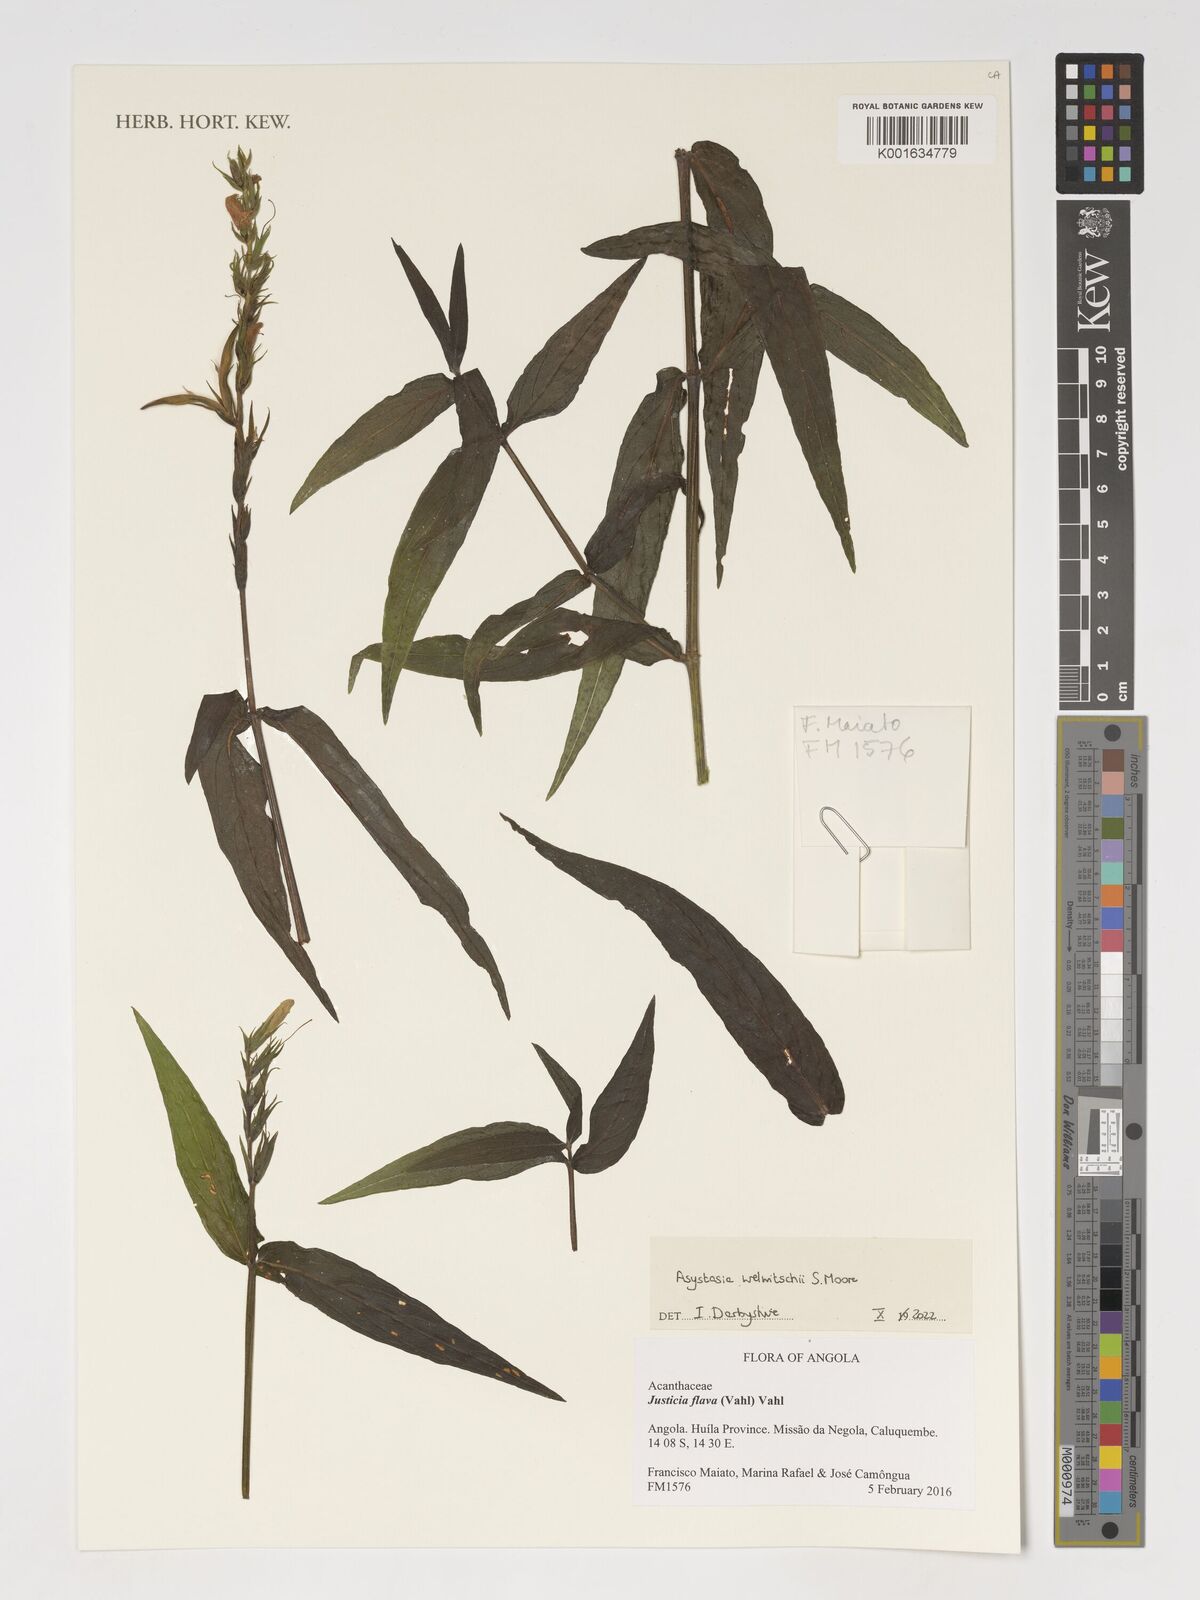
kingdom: Plantae
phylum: Tracheophyta
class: Magnoliopsida
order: Lamiales
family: Acanthaceae
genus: Asystasia
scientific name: Asystasia welwitschii
